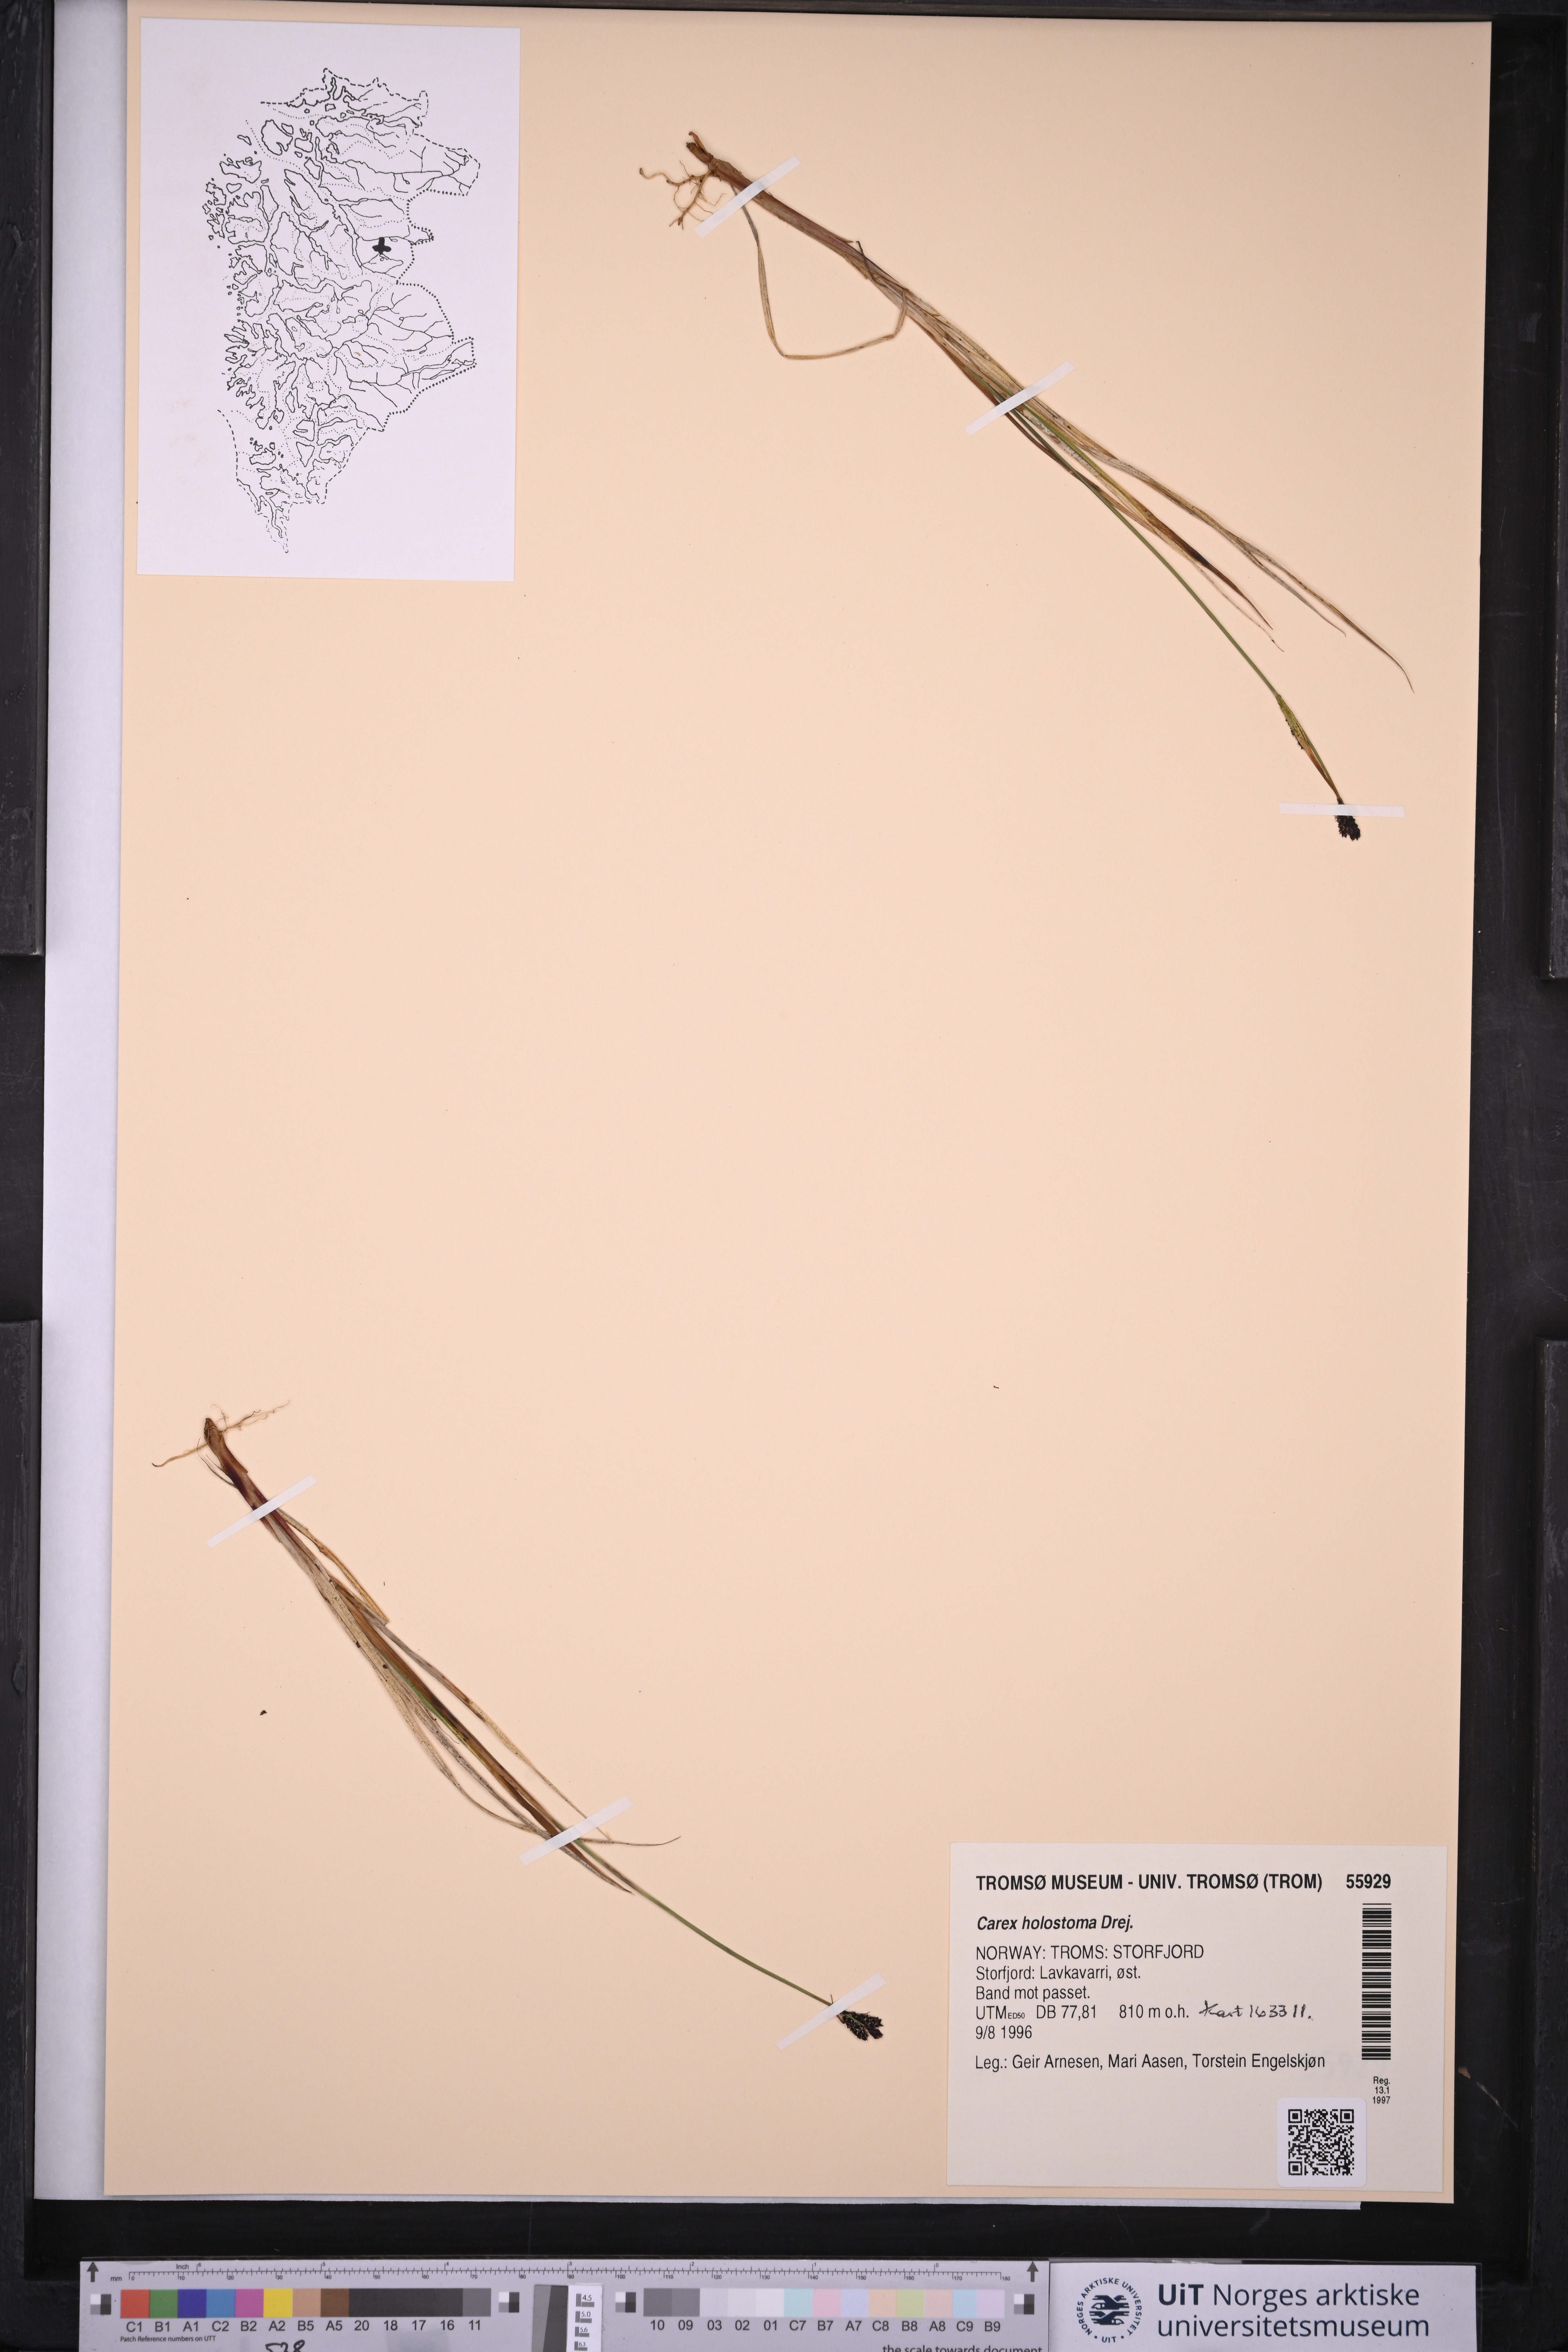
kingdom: Plantae
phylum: Tracheophyta
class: Liliopsida
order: Poales
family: Cyperaceae
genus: Carex
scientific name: Carex holostoma
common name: Arctic marsh sedge
